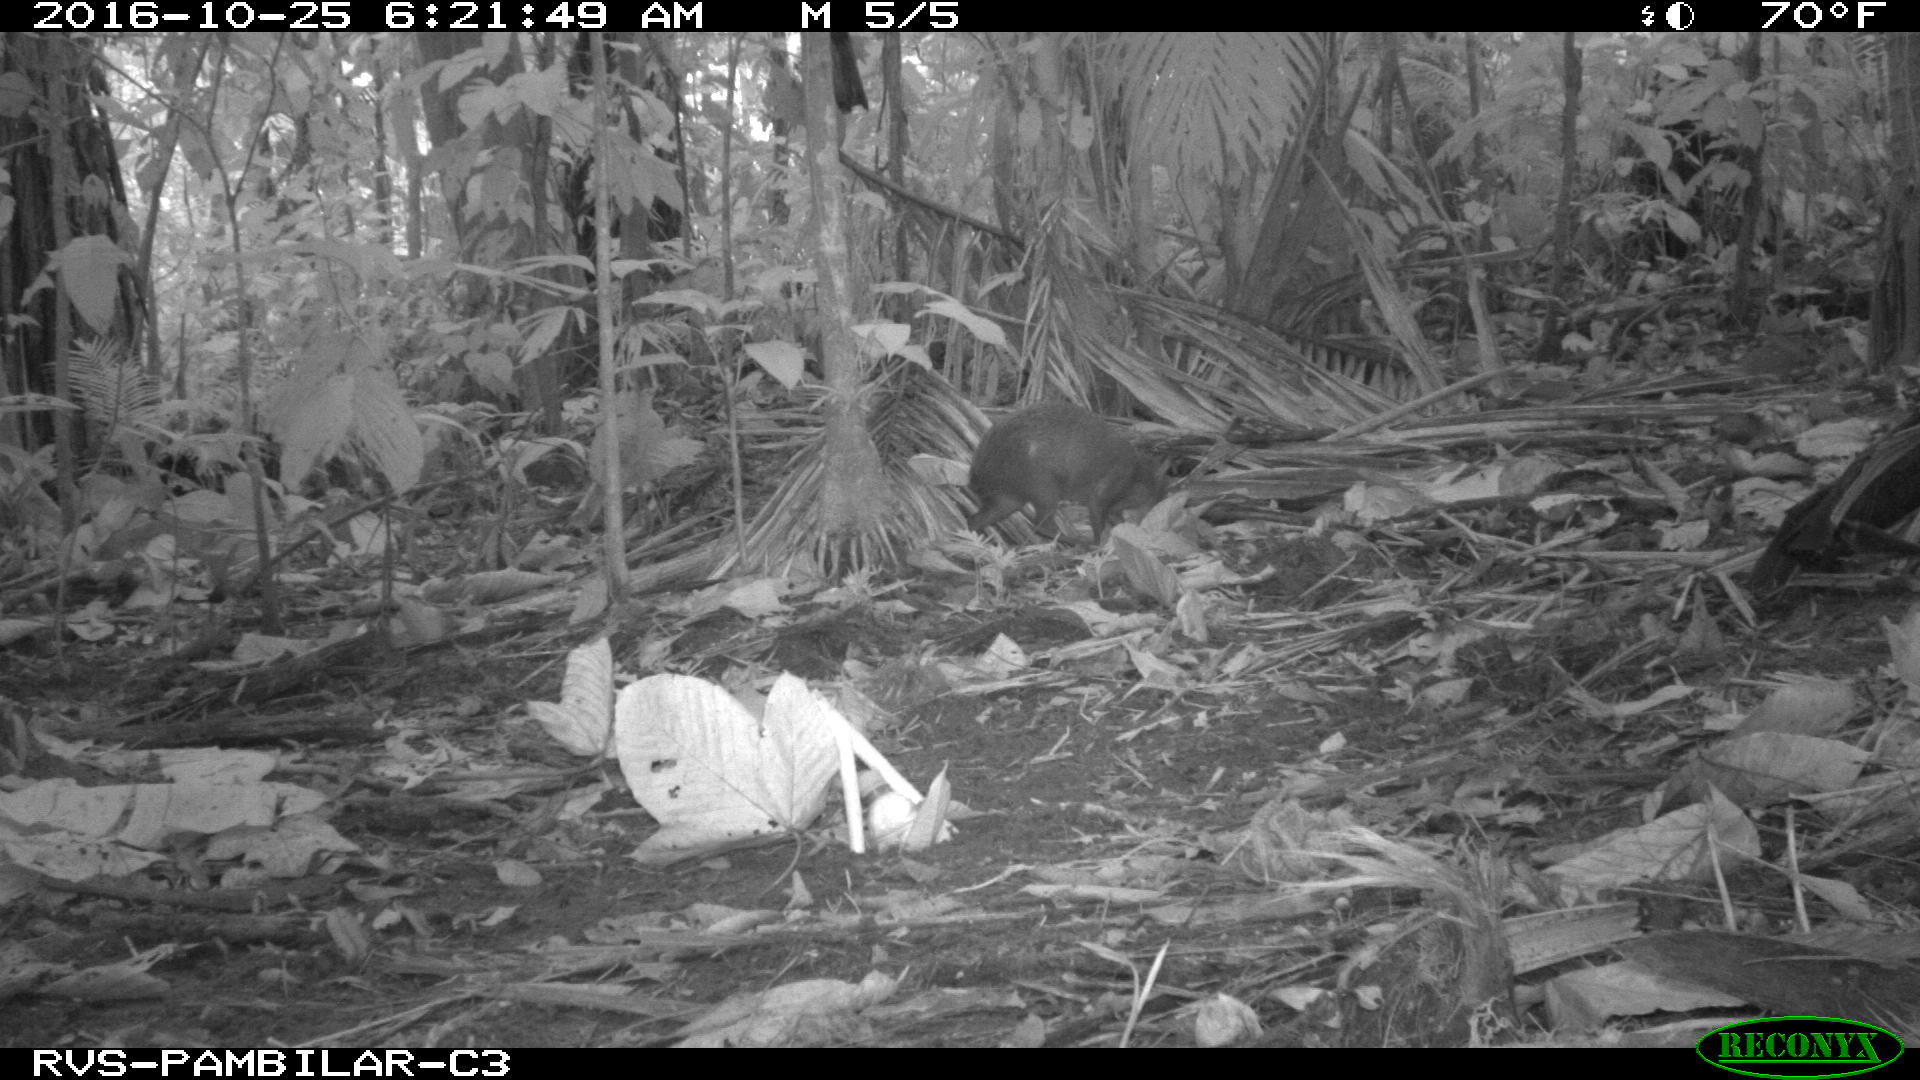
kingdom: Animalia
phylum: Chordata
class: Mammalia
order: Rodentia
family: Dasyproctidae
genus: Dasyprocta
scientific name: Dasyprocta punctata
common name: Central american agouti
